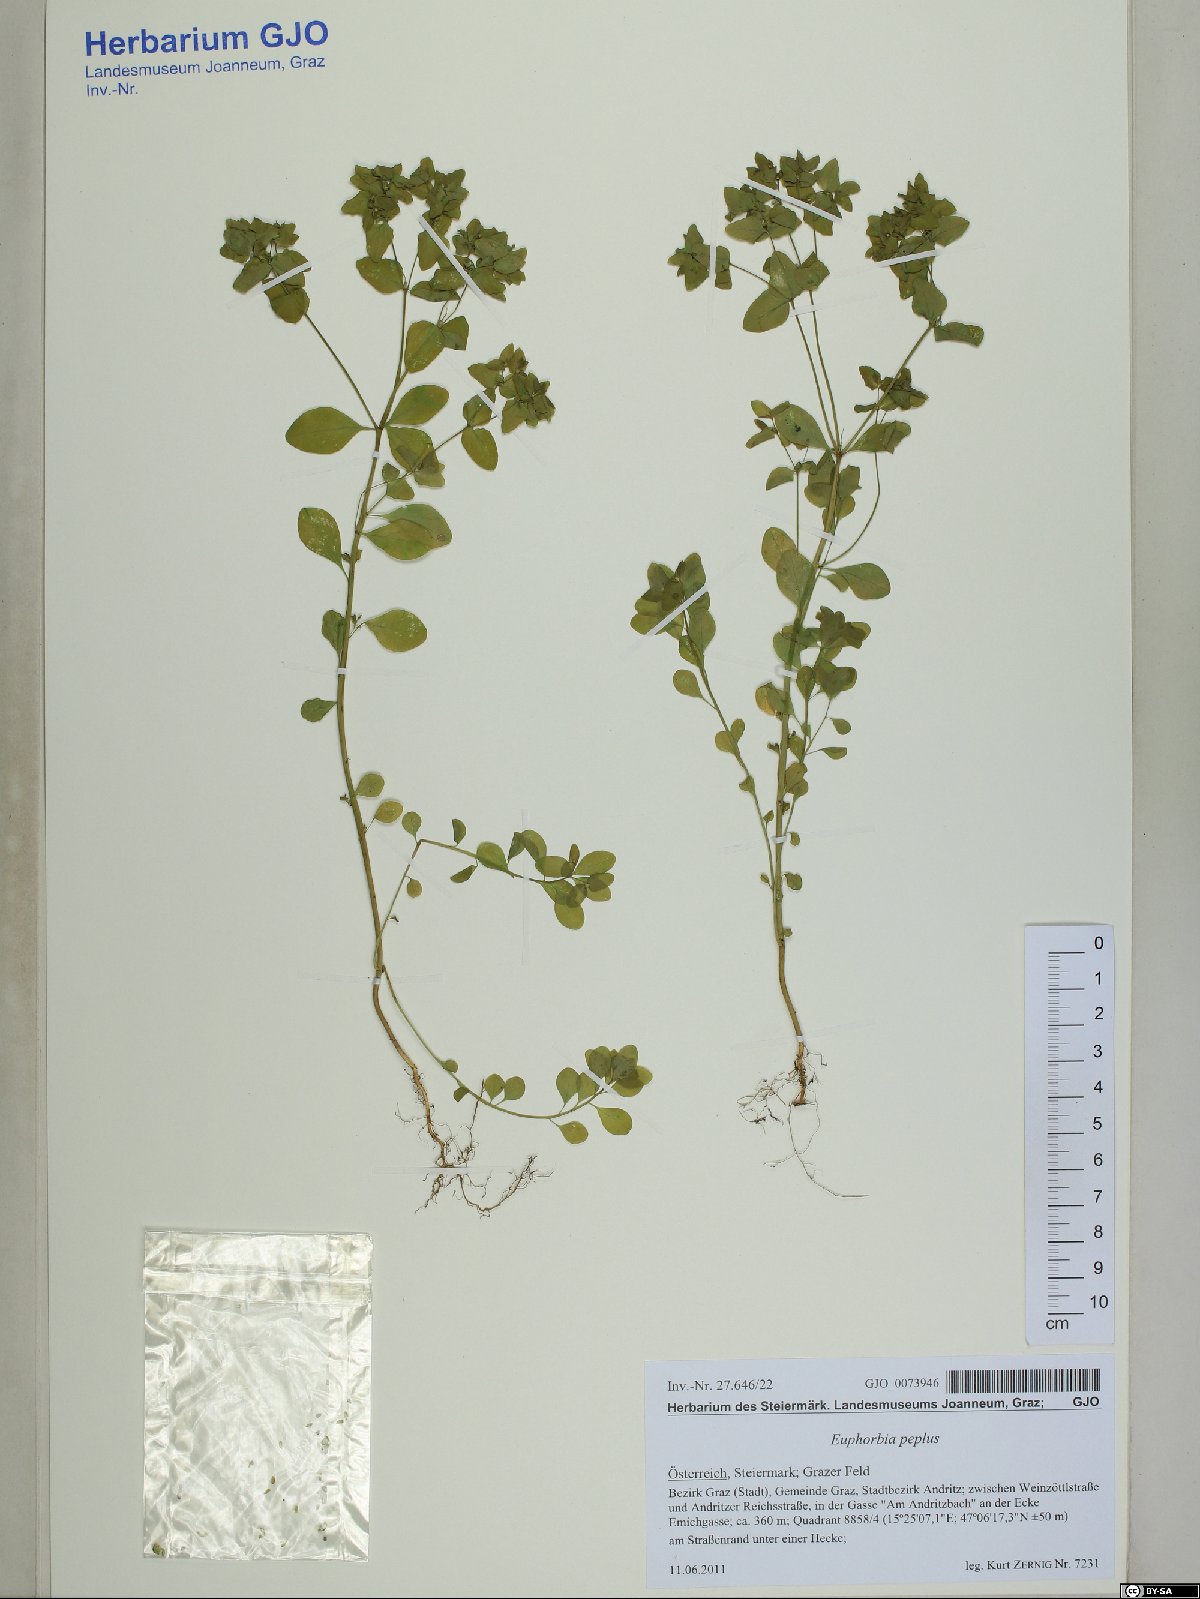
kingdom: Plantae
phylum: Tracheophyta
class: Magnoliopsida
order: Malpighiales
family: Euphorbiaceae
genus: Euphorbia
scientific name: Euphorbia peplus
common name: Petty spurge
